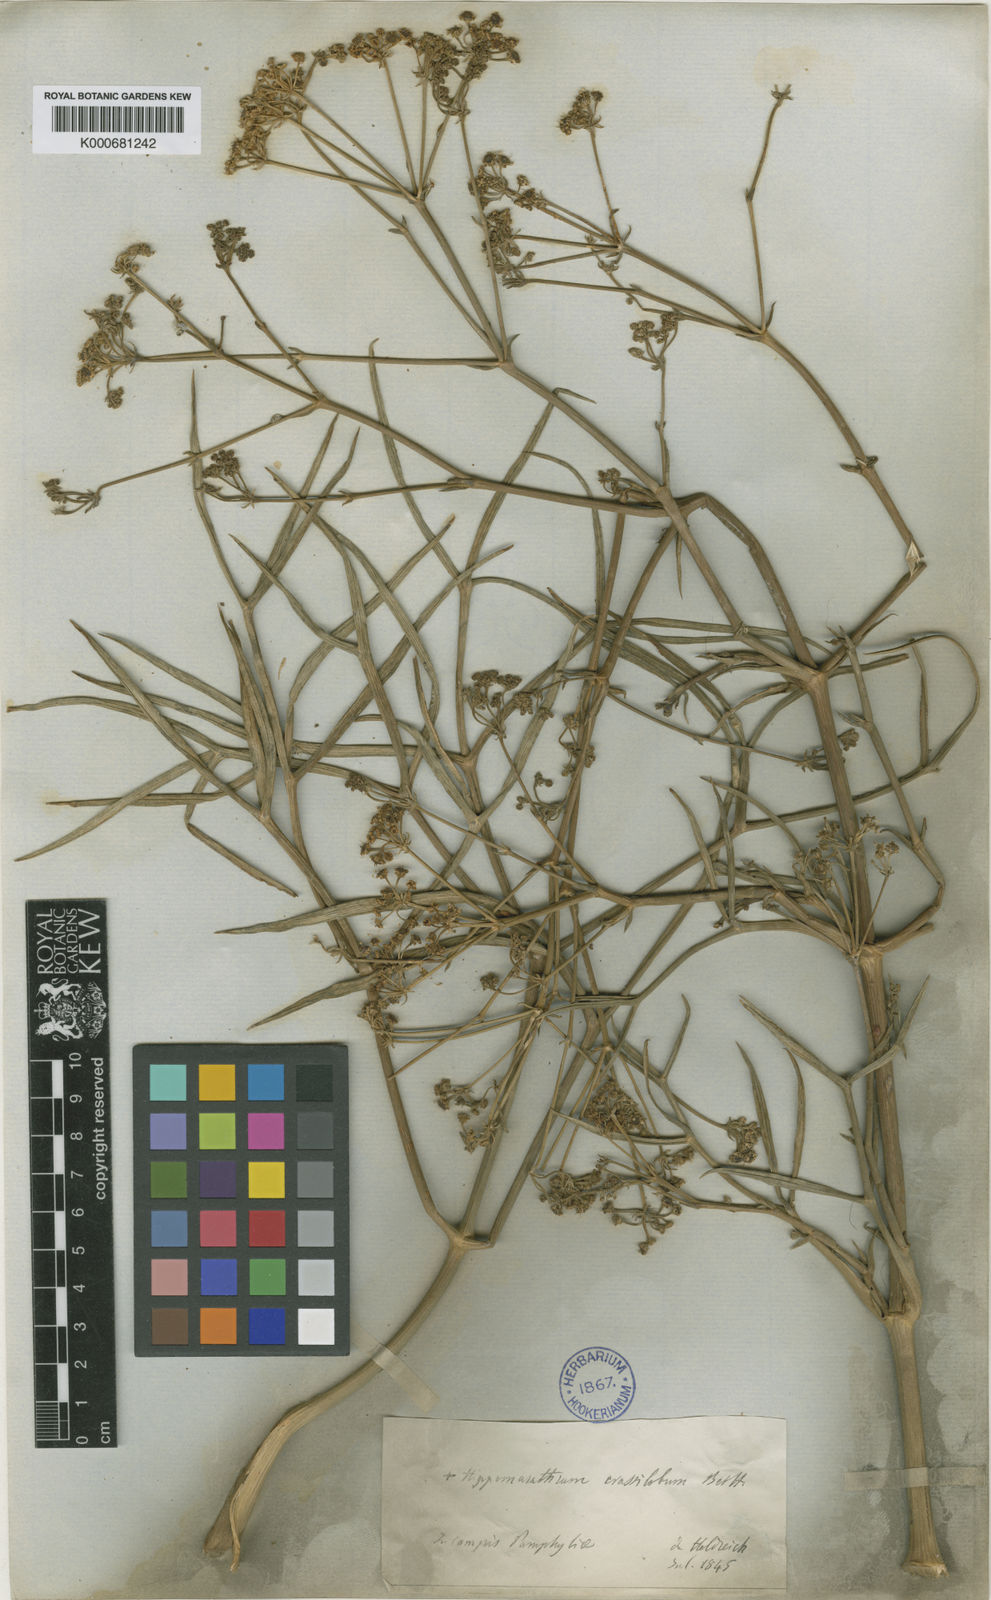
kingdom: Plantae
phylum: Tracheophyta
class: Magnoliopsida
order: Apiales
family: Apiaceae
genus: Cachrys
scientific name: Cachrys crassiloba
